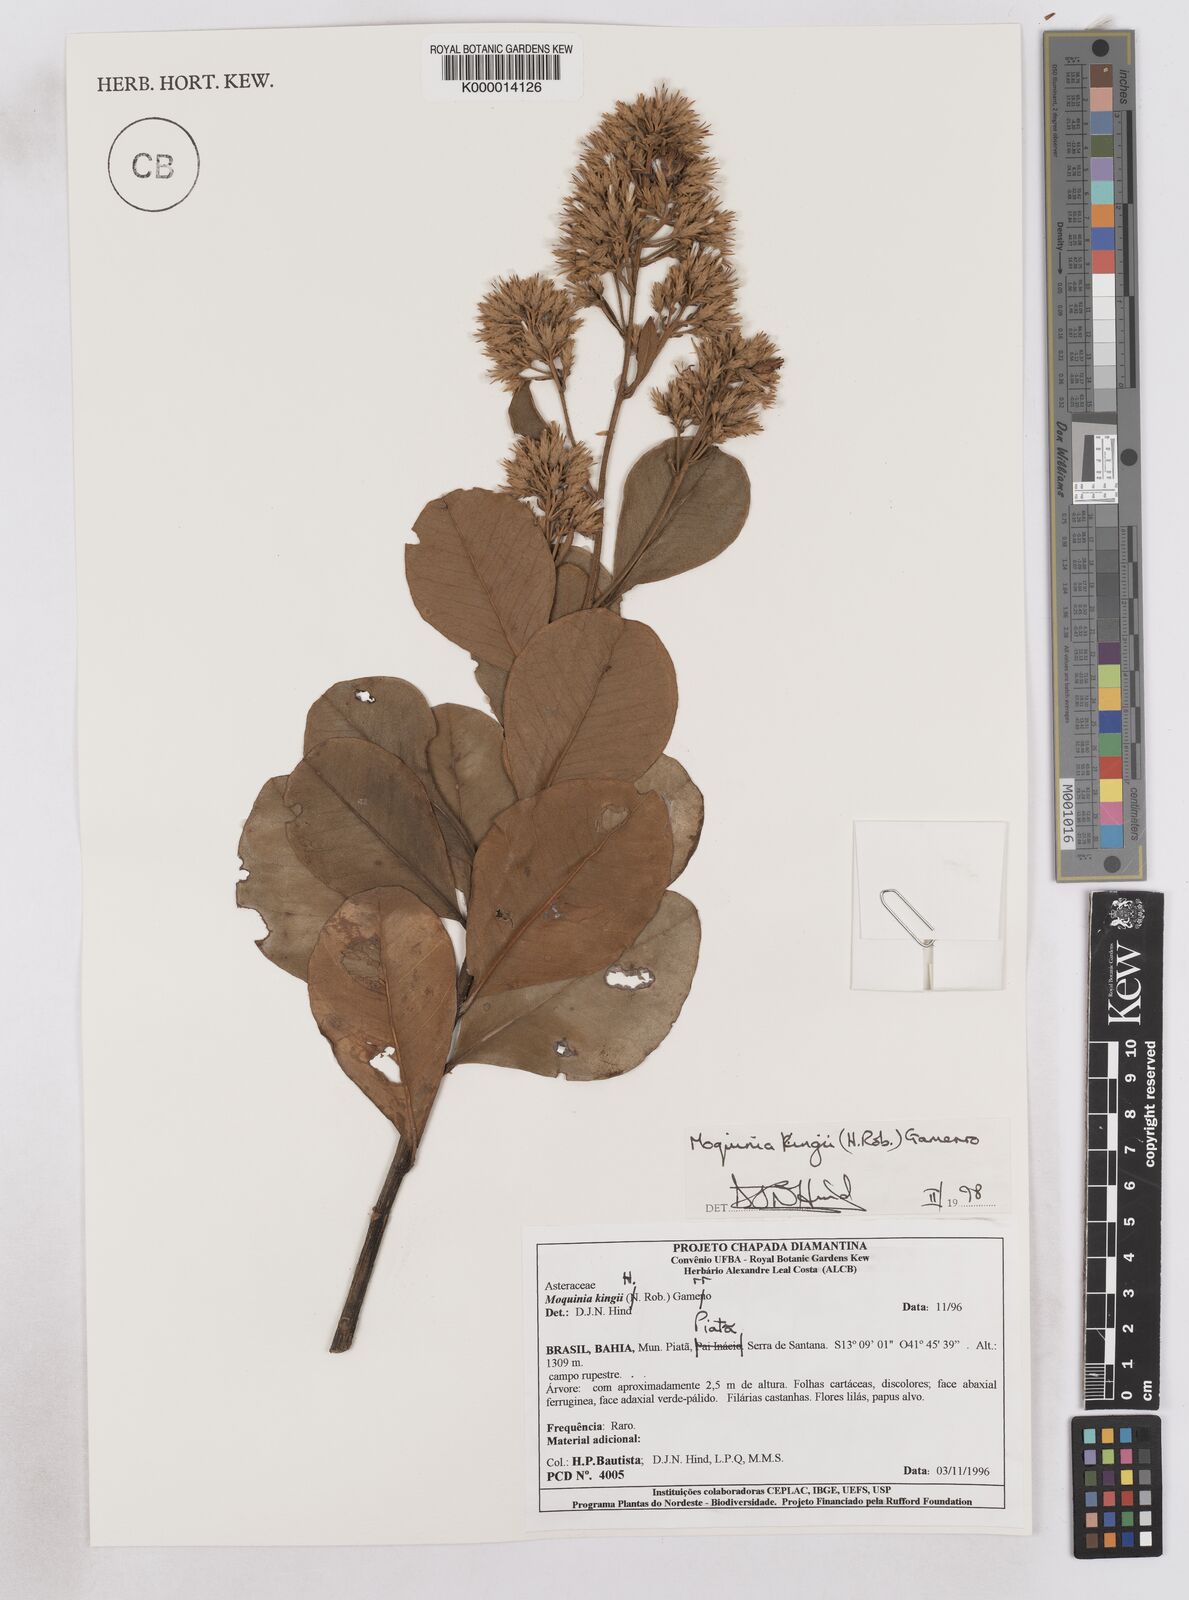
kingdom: Plantae
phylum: Tracheophyta
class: Magnoliopsida
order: Asterales
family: Asteraceae
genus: Pseudostifftia
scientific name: Pseudostifftia kingii
